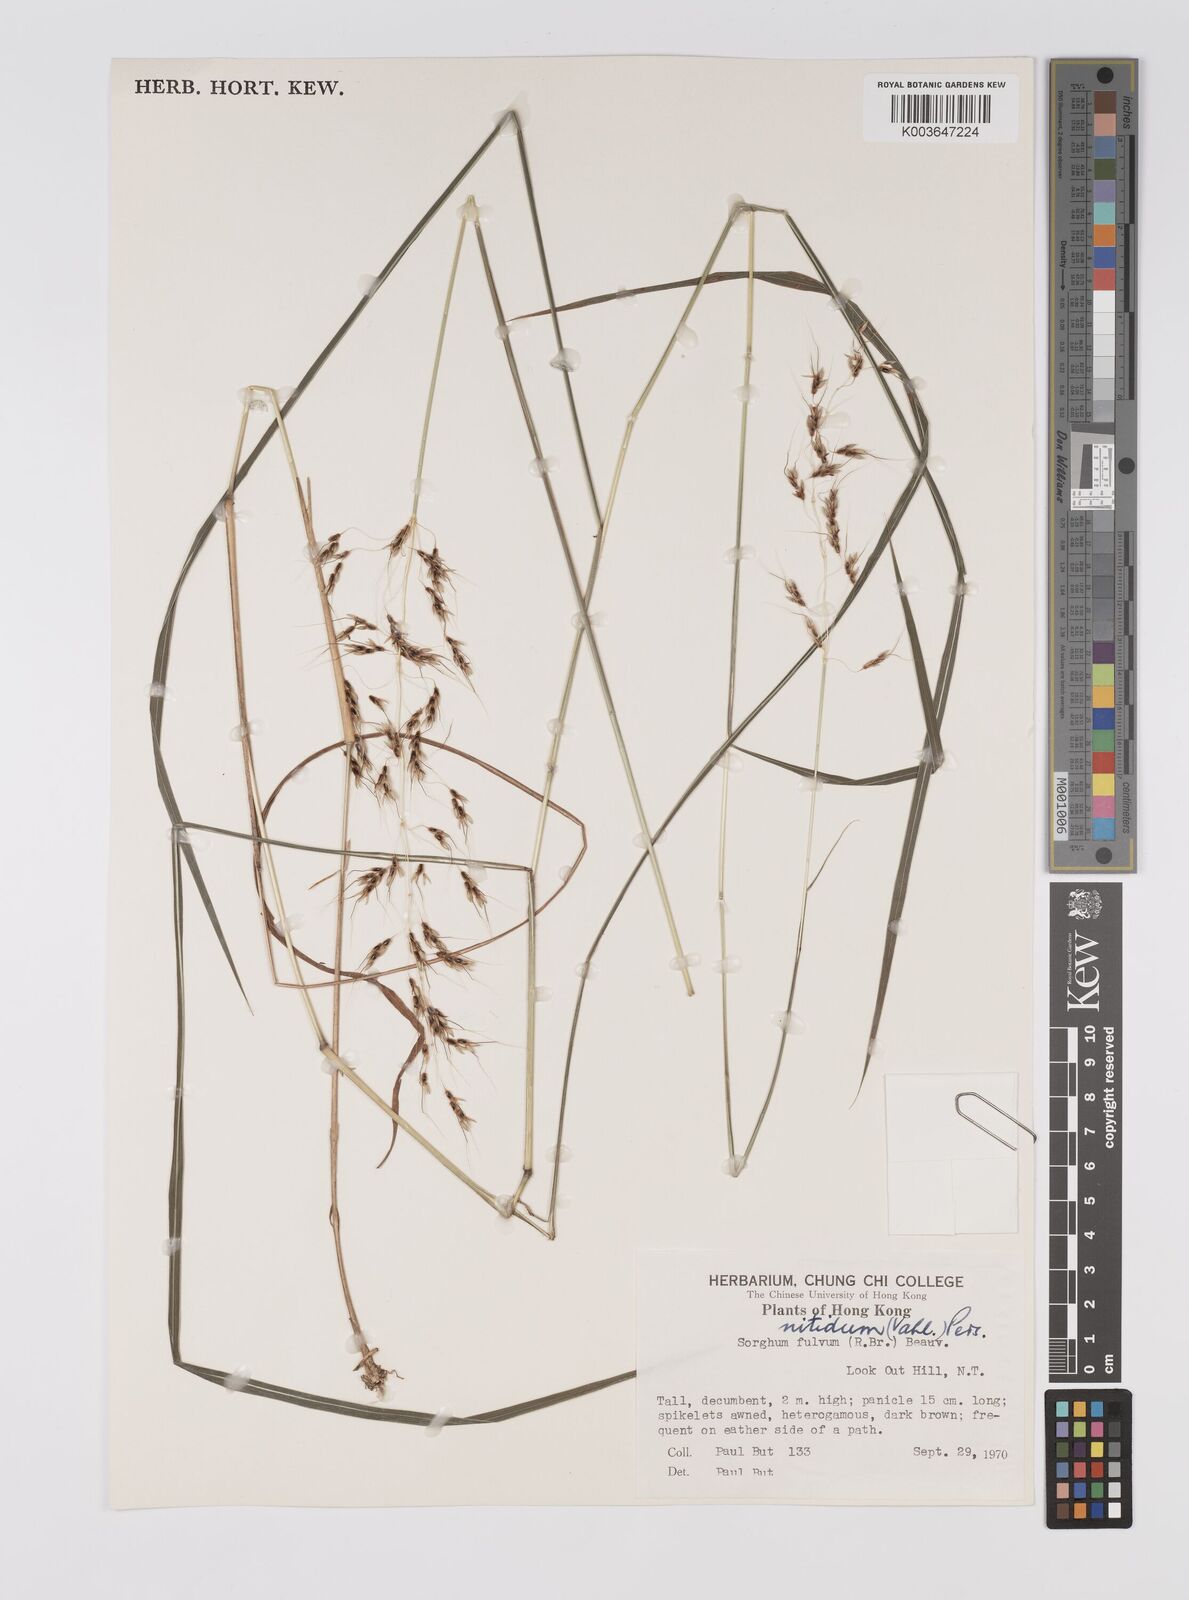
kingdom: Plantae
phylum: Tracheophyta
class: Liliopsida
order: Poales
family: Poaceae
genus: Sorghum
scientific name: Sorghum nitidum
